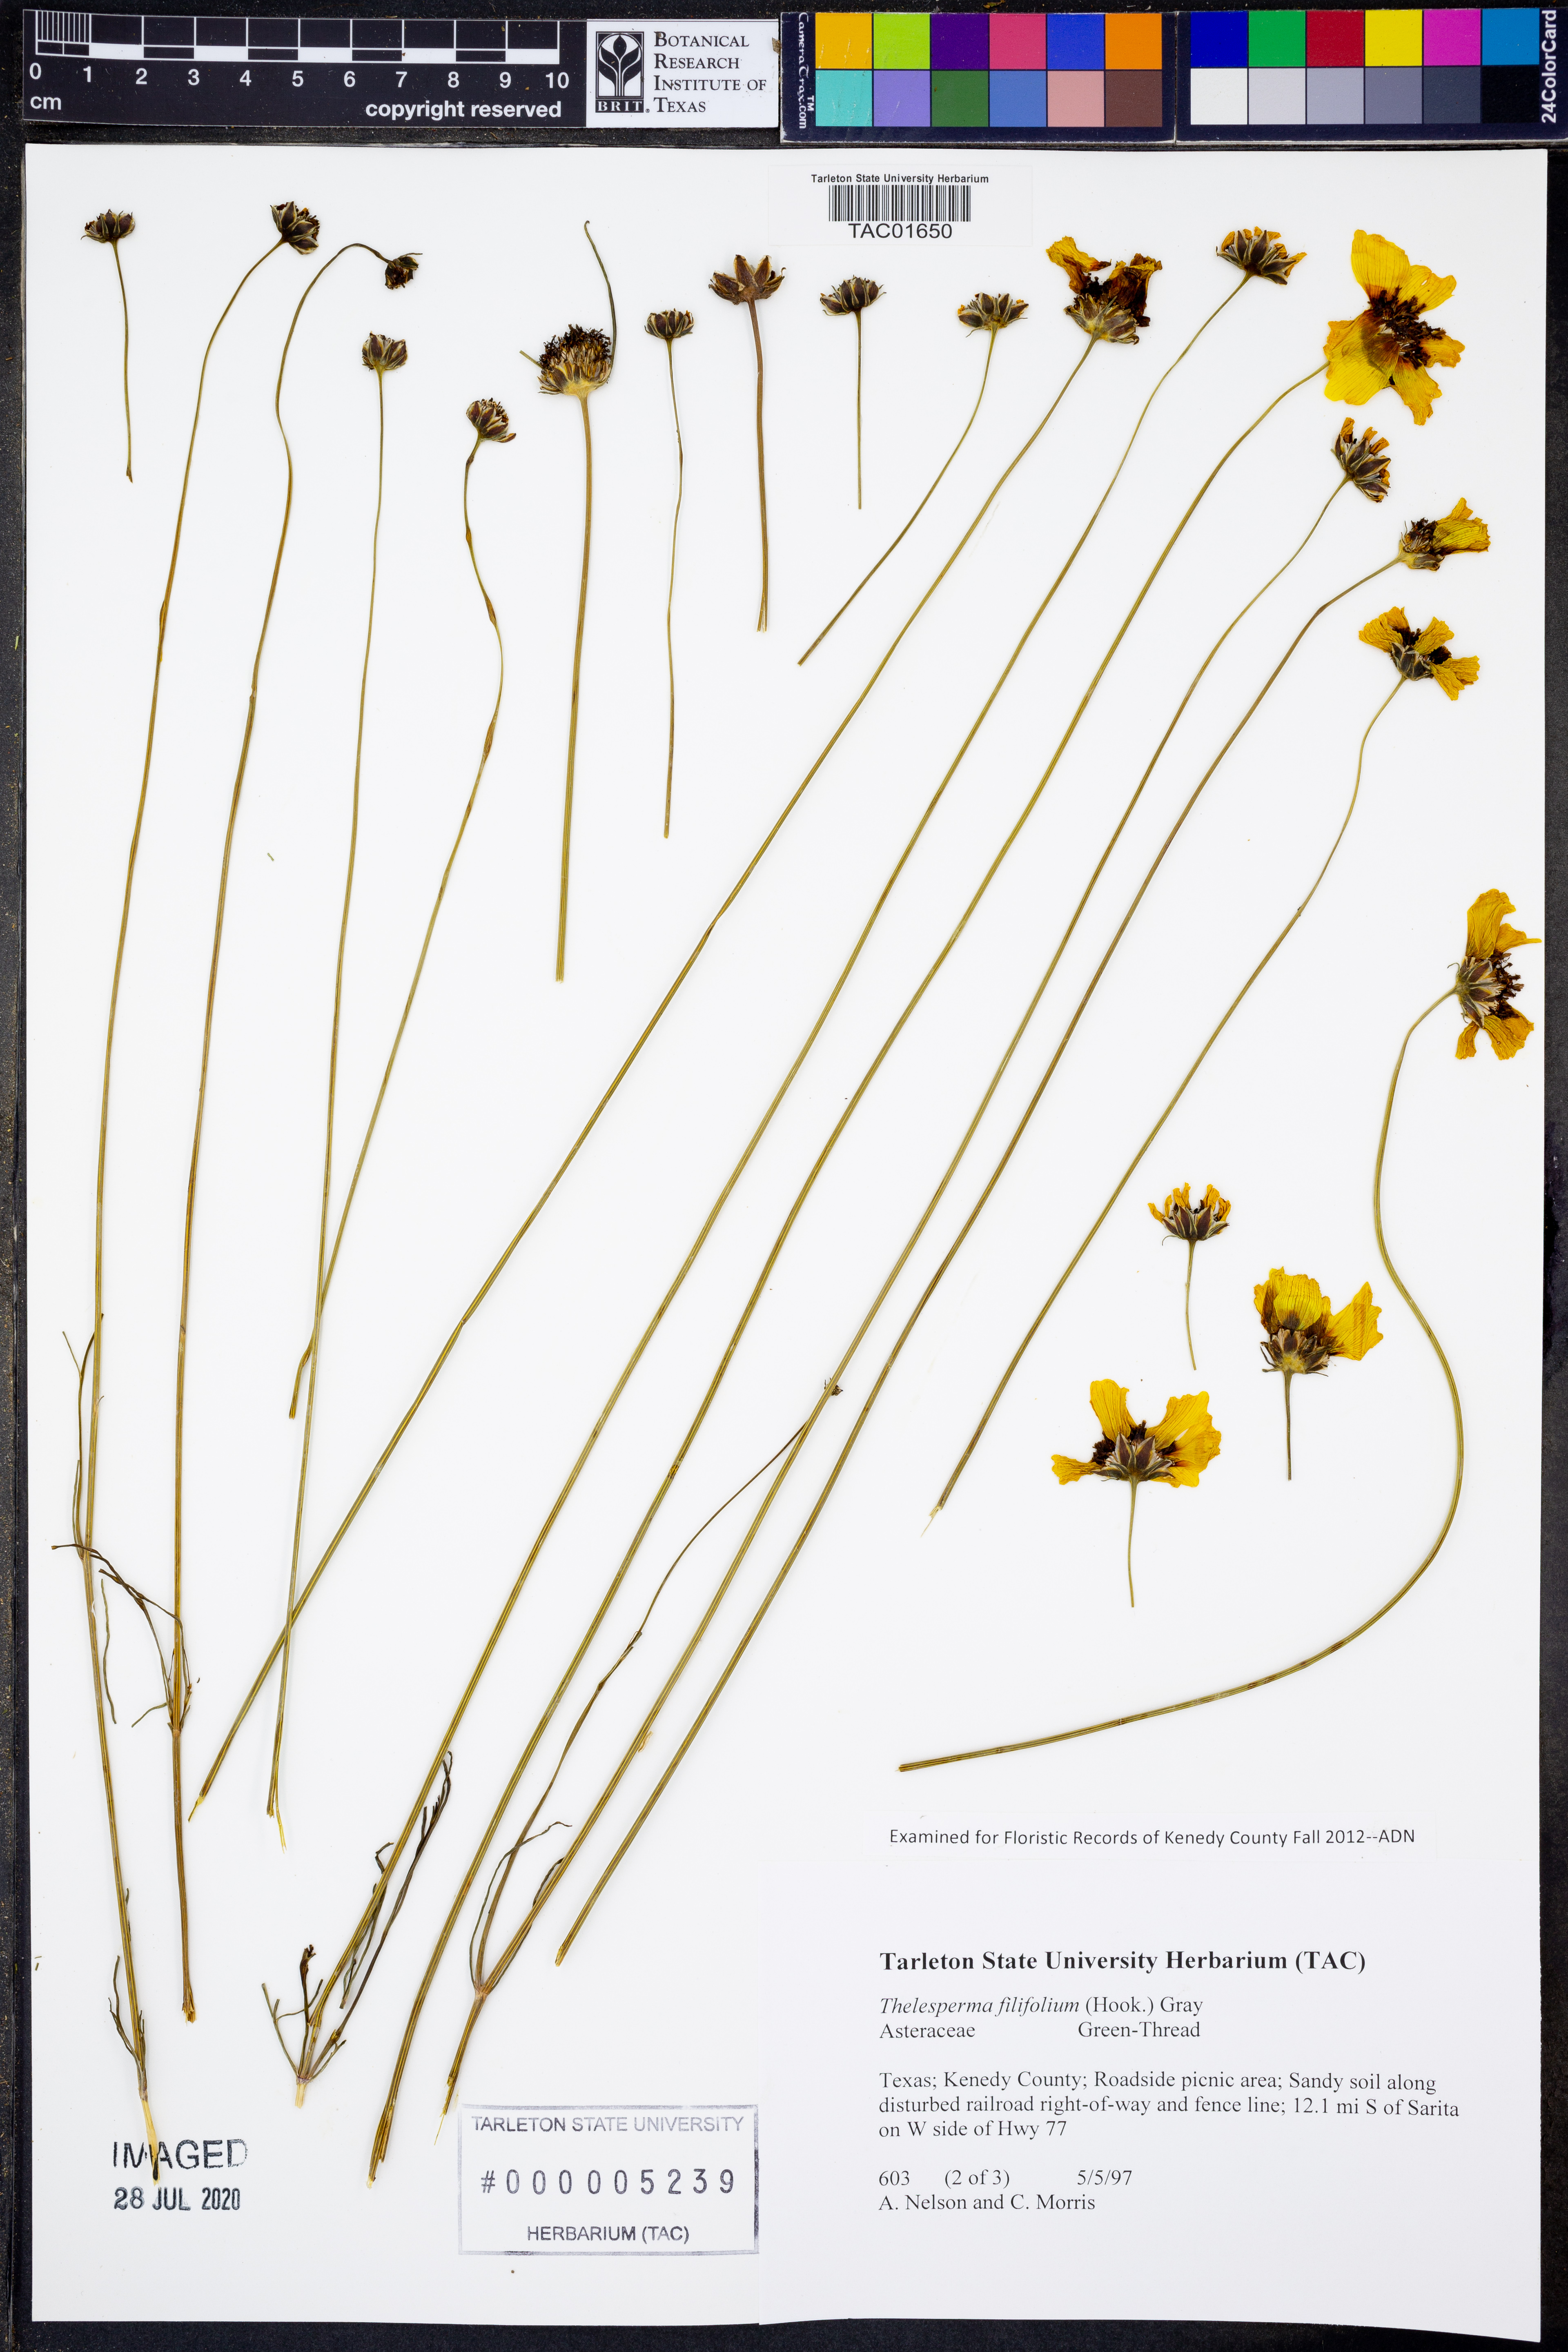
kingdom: Plantae
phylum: Tracheophyta
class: Magnoliopsida
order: Asterales
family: Asteraceae
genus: Thelesperma
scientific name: Thelesperma filifolium
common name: Stiff greenthread
